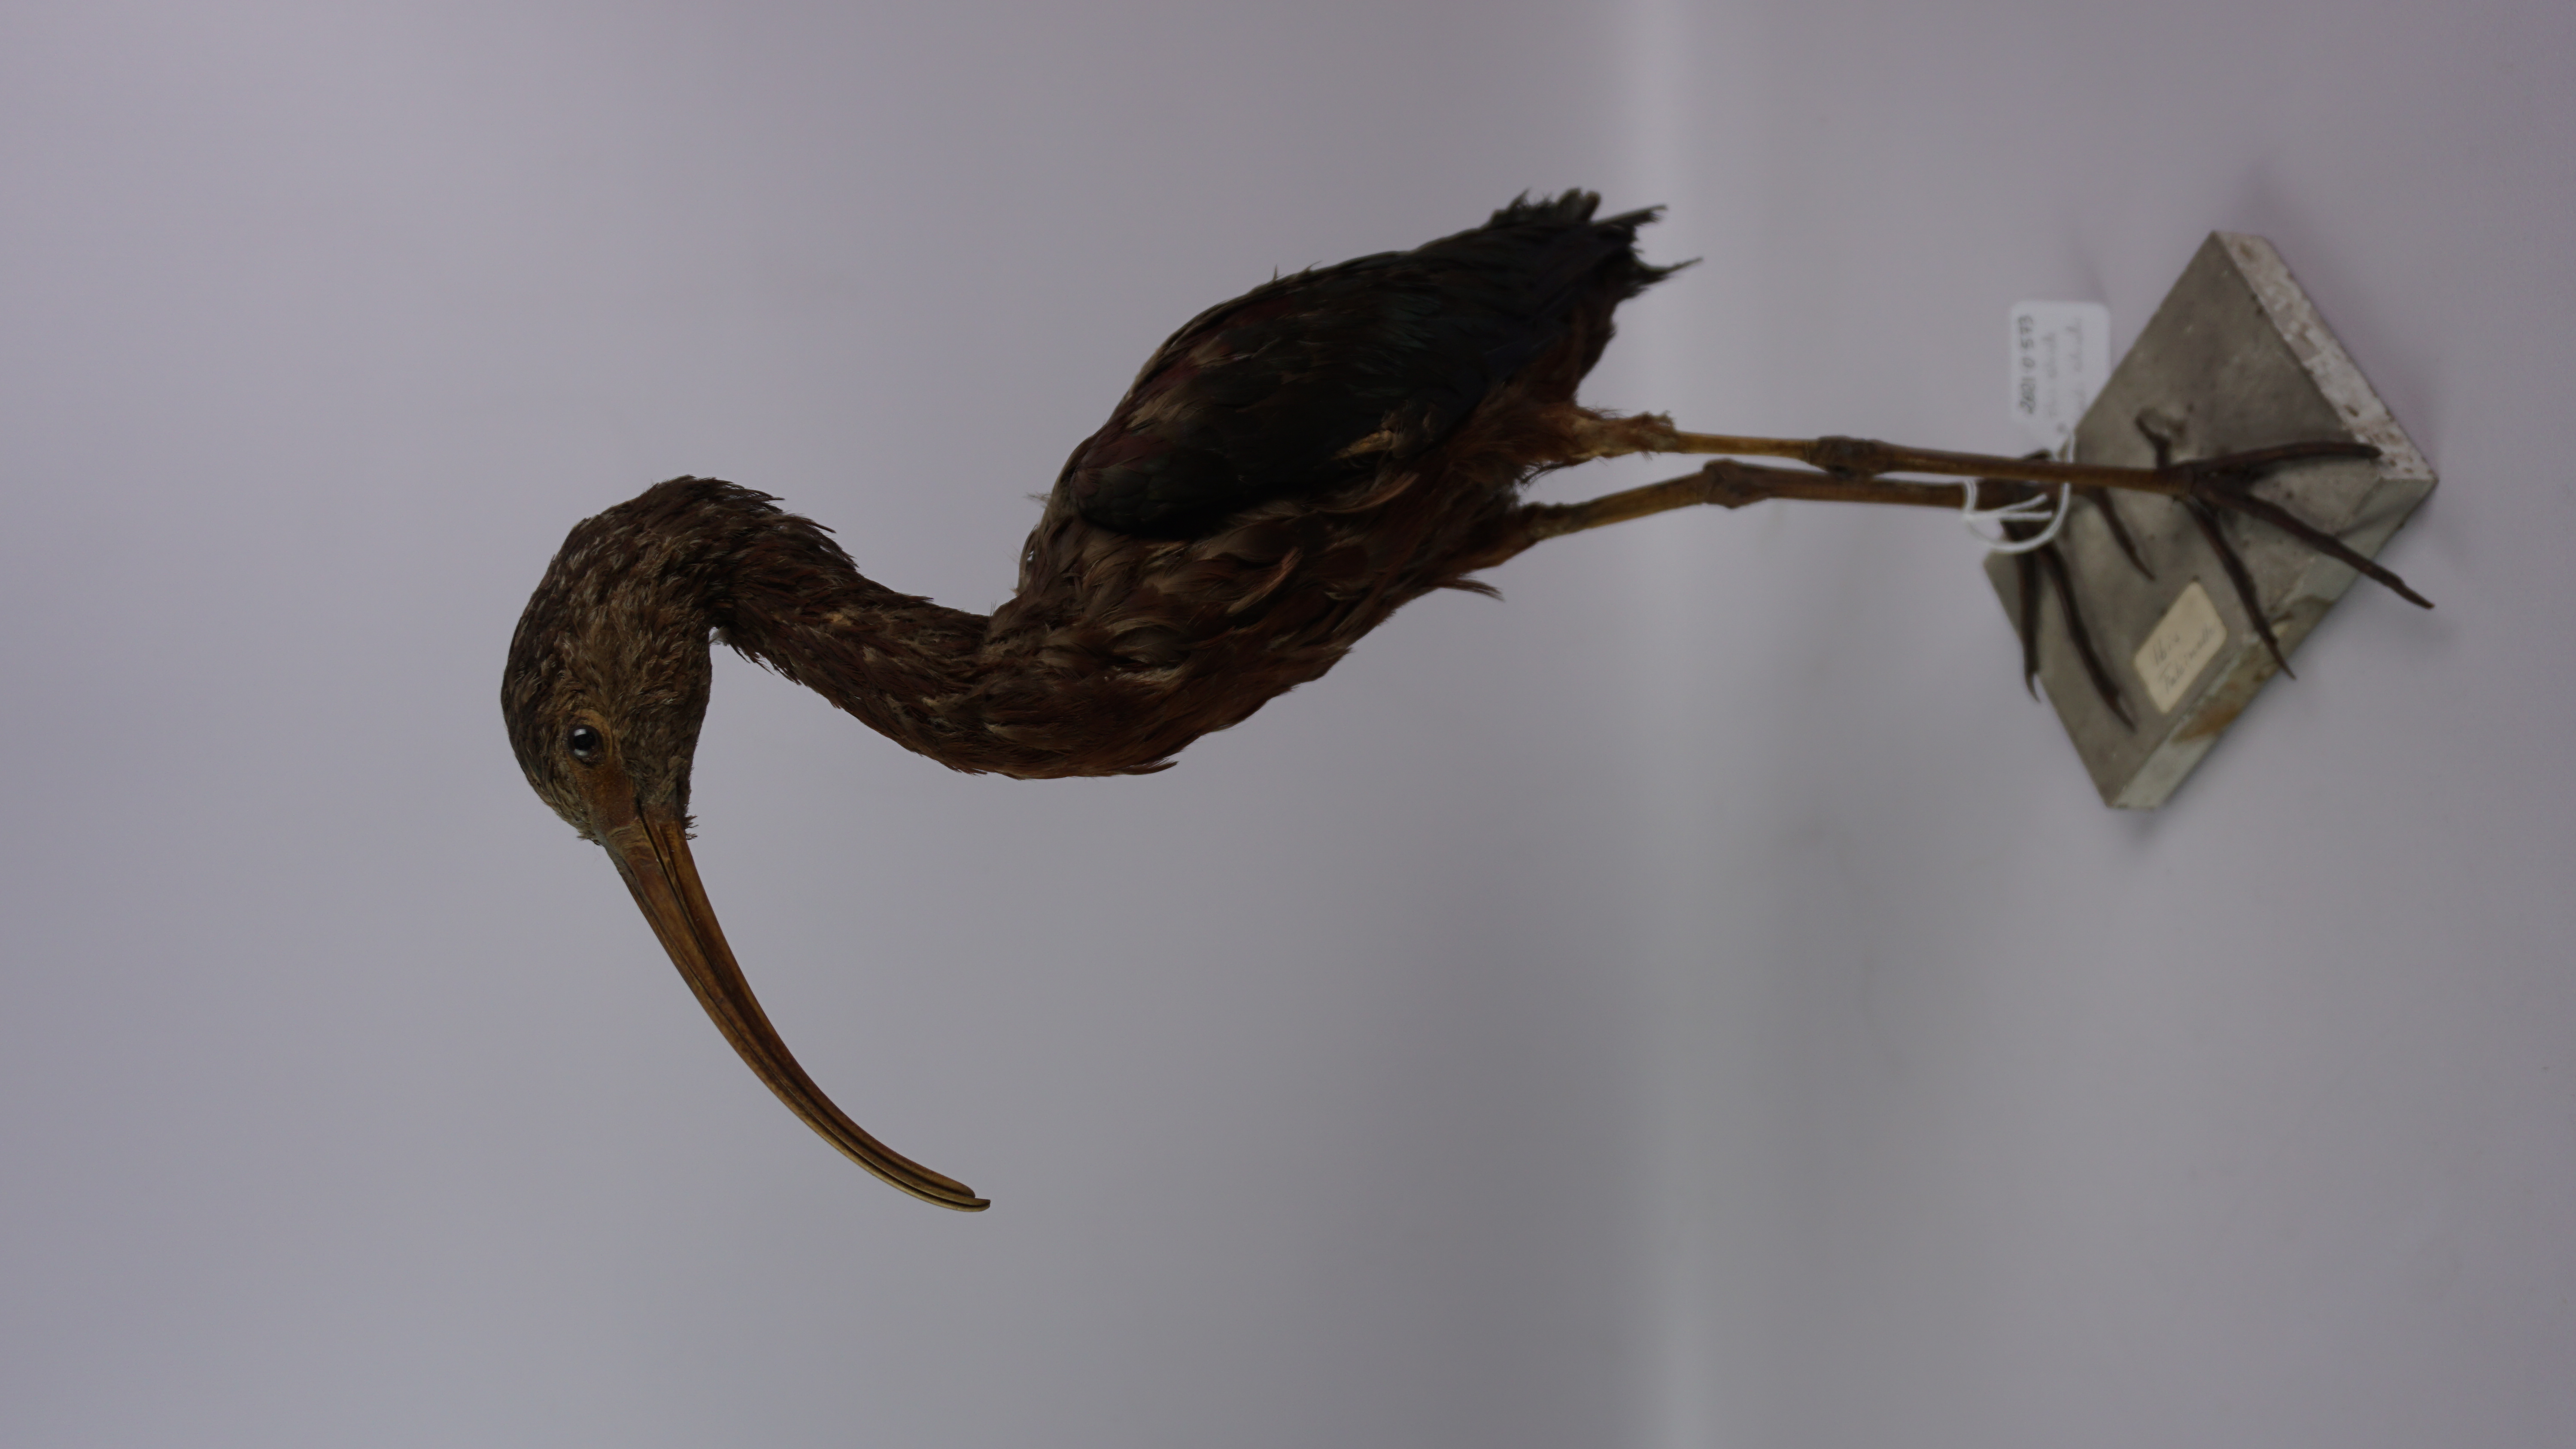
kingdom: Animalia
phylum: Chordata
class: Aves
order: Pelecaniformes
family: Threskiornithidae
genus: Plegadis
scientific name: Plegadis falcinellus
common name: Glossy ibis
